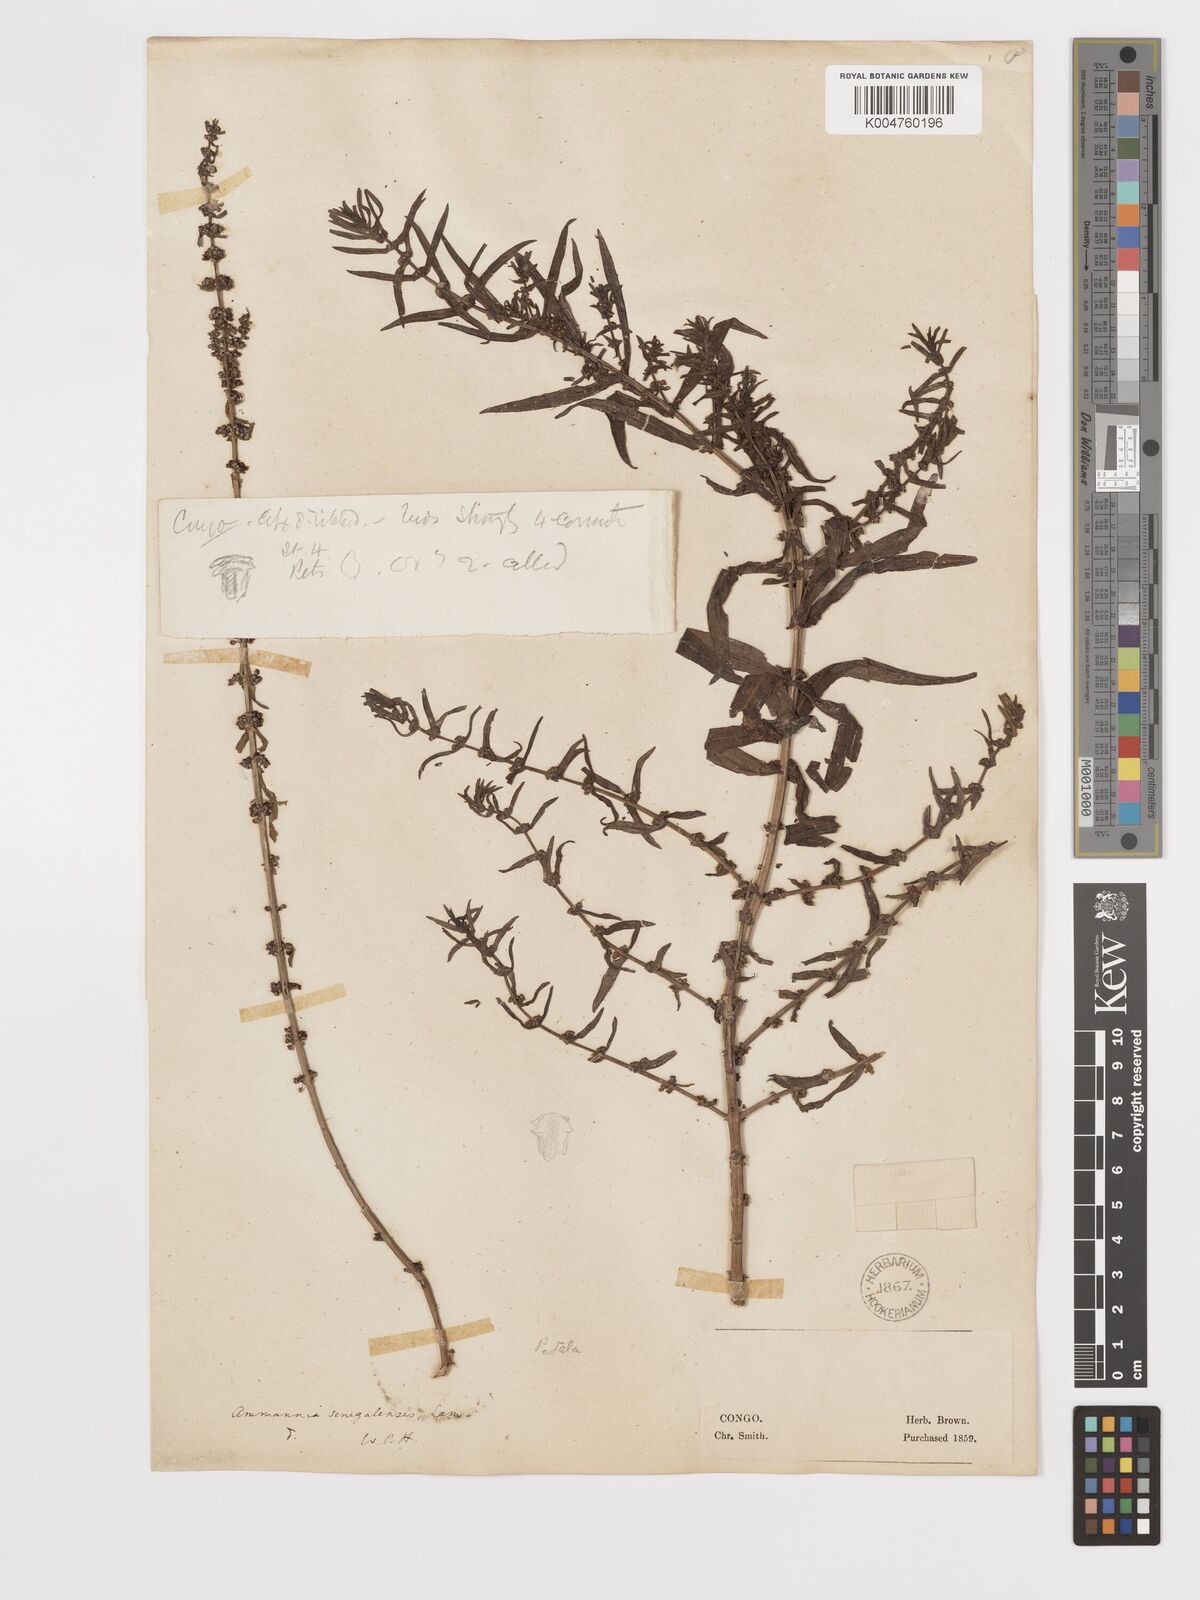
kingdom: Plantae
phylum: Tracheophyta
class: Magnoliopsida
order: Myrtales
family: Lythraceae
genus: Ammannia
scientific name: Ammannia prieuriana
